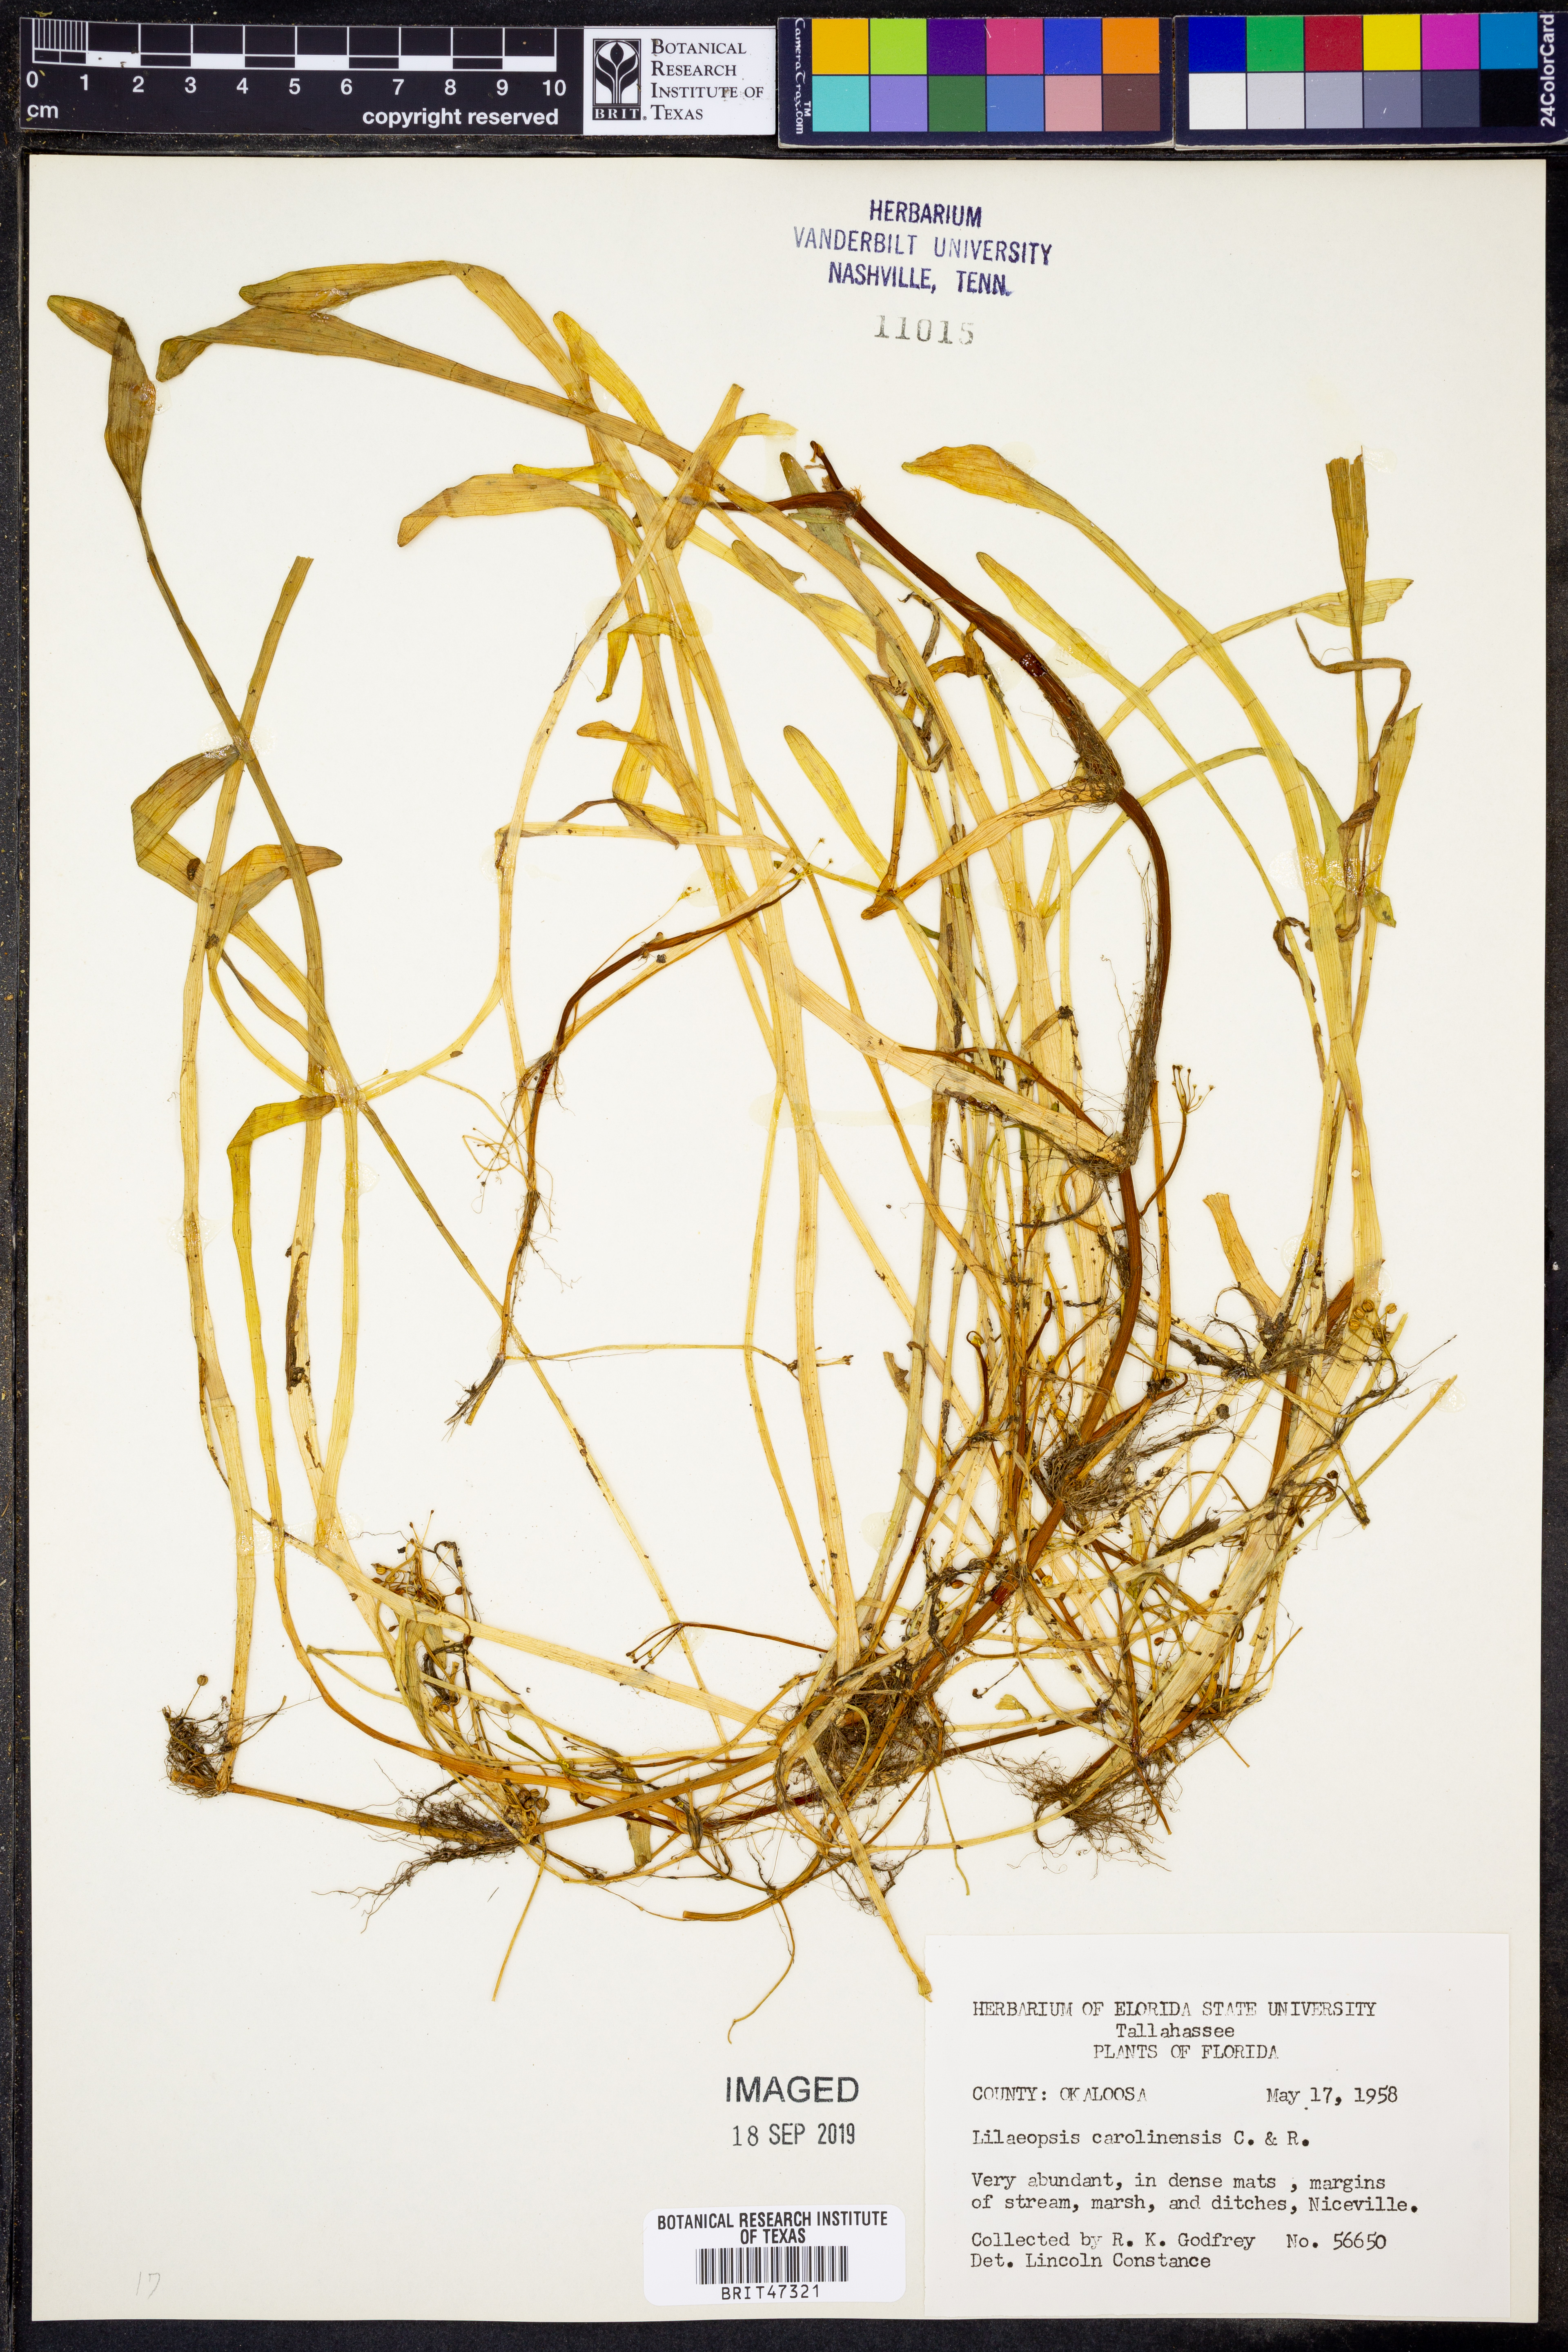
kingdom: Plantae
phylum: Tracheophyta
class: Magnoliopsida
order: Apiales
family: Apiaceae
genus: Lilaeopsis
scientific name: Lilaeopsis carolinensis
